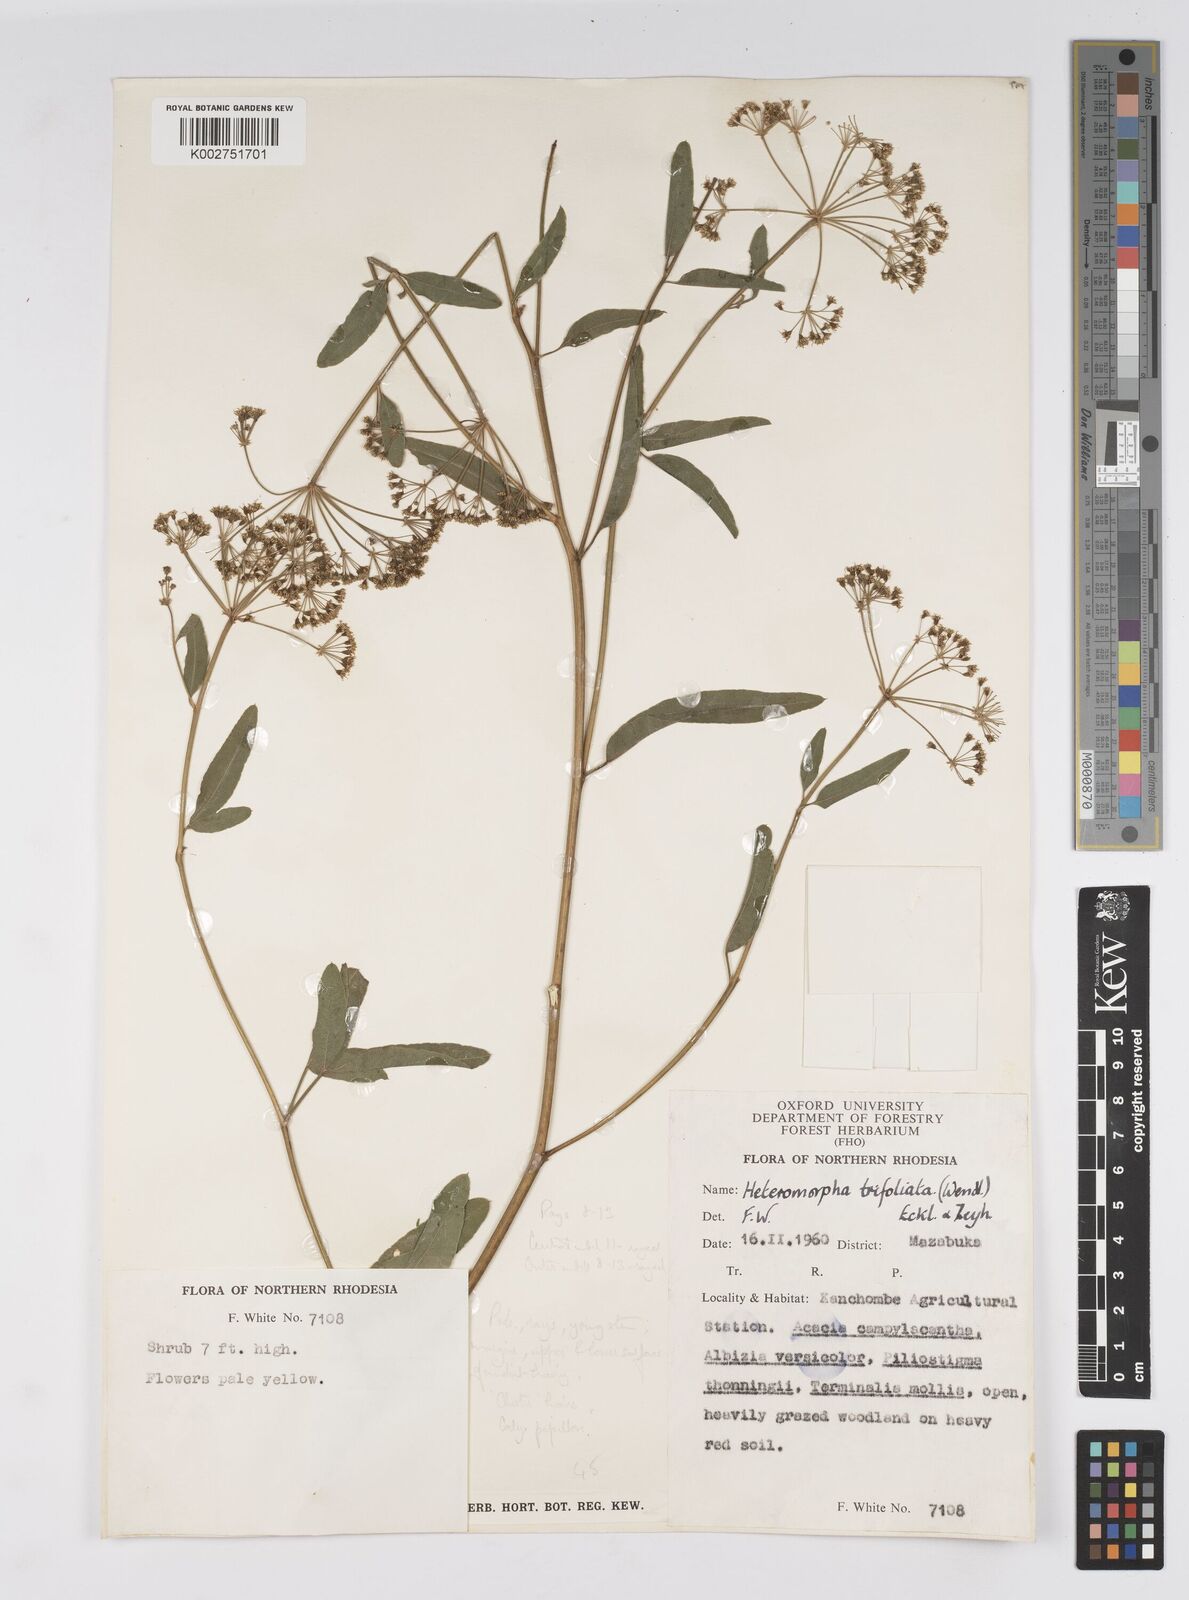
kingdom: Plantae
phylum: Tracheophyta
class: Magnoliopsida
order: Apiales
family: Apiaceae
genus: Heteromorpha
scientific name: Heteromorpha stenophylla
